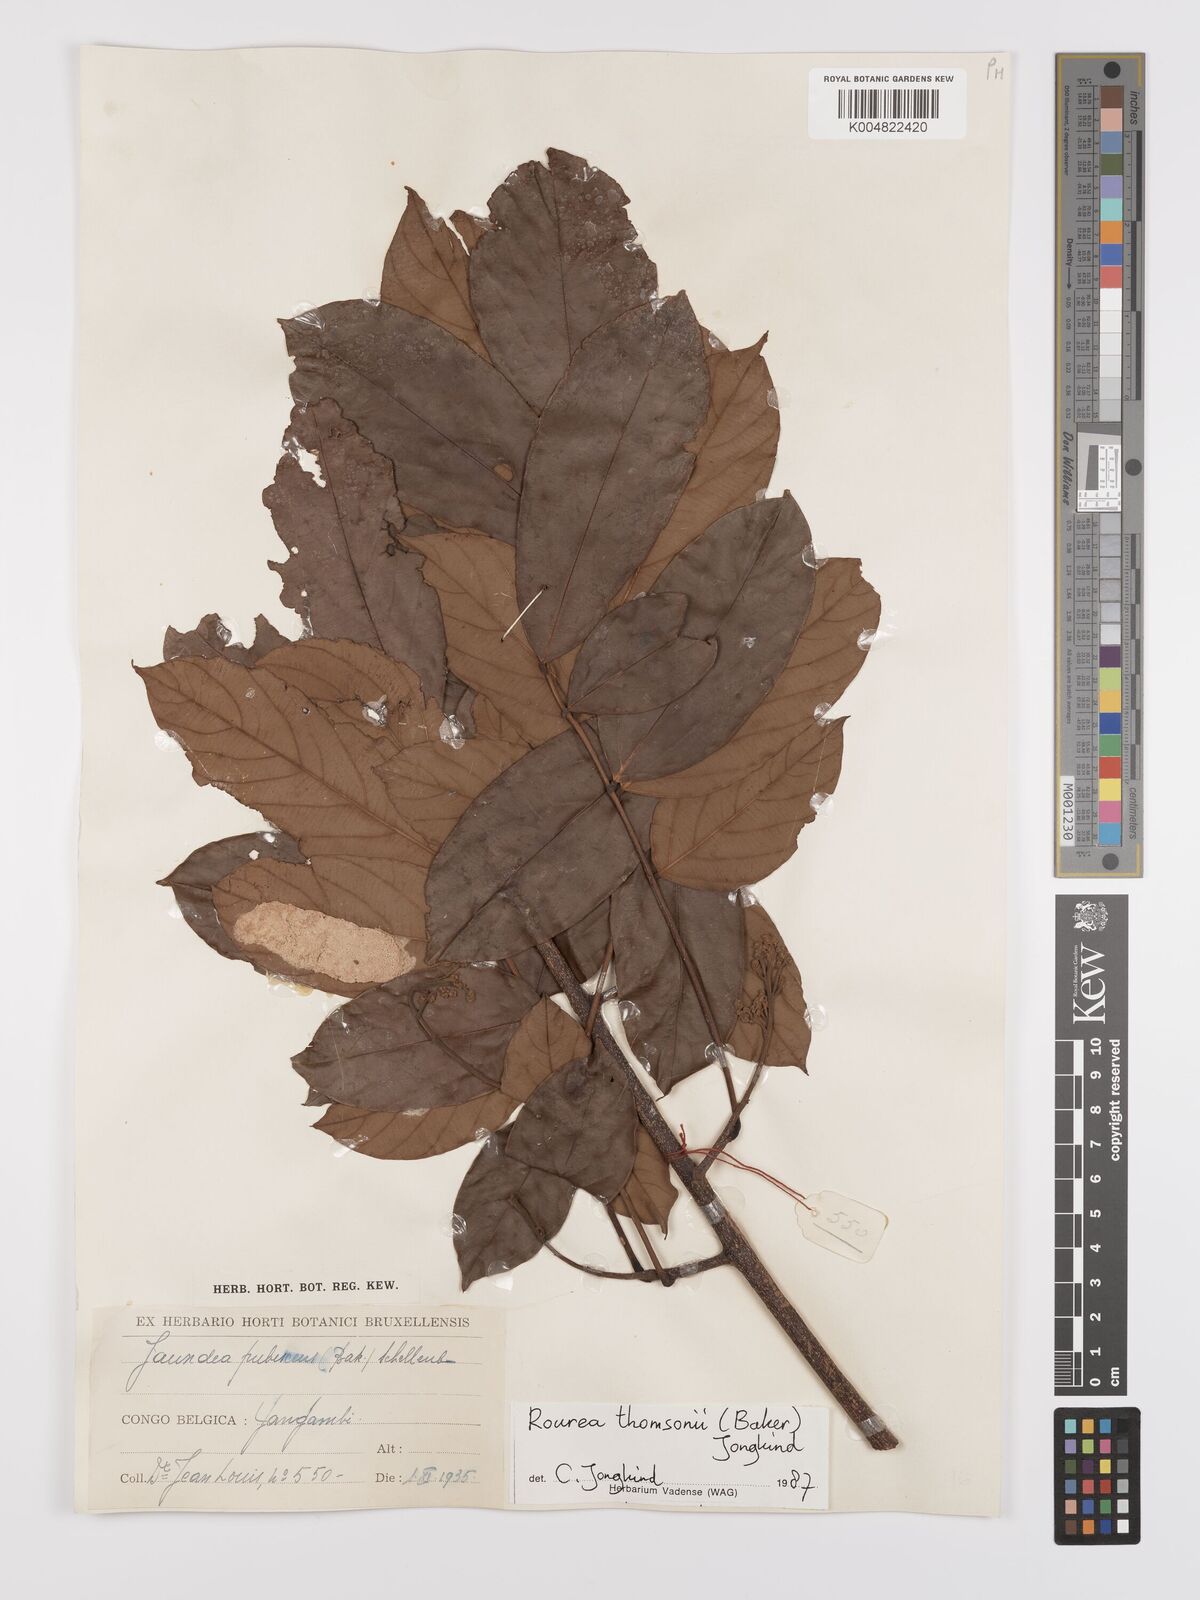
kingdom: Plantae
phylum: Tracheophyta
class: Magnoliopsida
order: Oxalidales
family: Connaraceae
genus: Rourea
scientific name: Rourea pubescens
